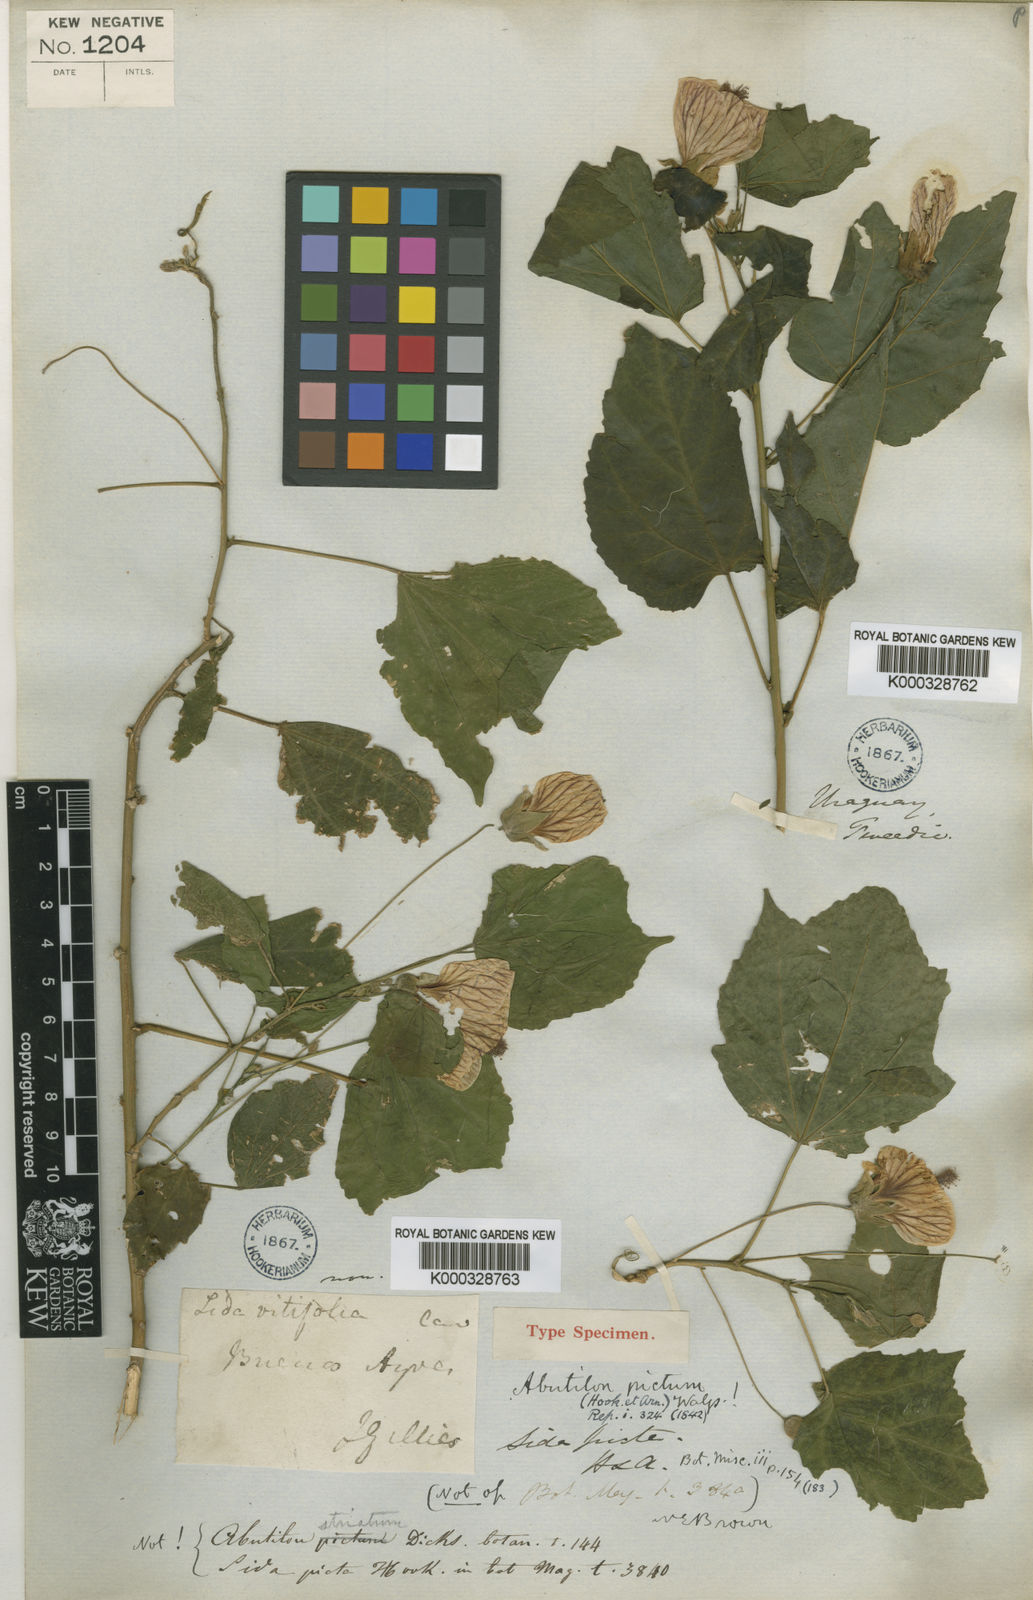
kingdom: Plantae
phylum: Tracheophyta
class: Magnoliopsida
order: Malvales
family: Malvaceae
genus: Callianthe
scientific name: Callianthe picta
